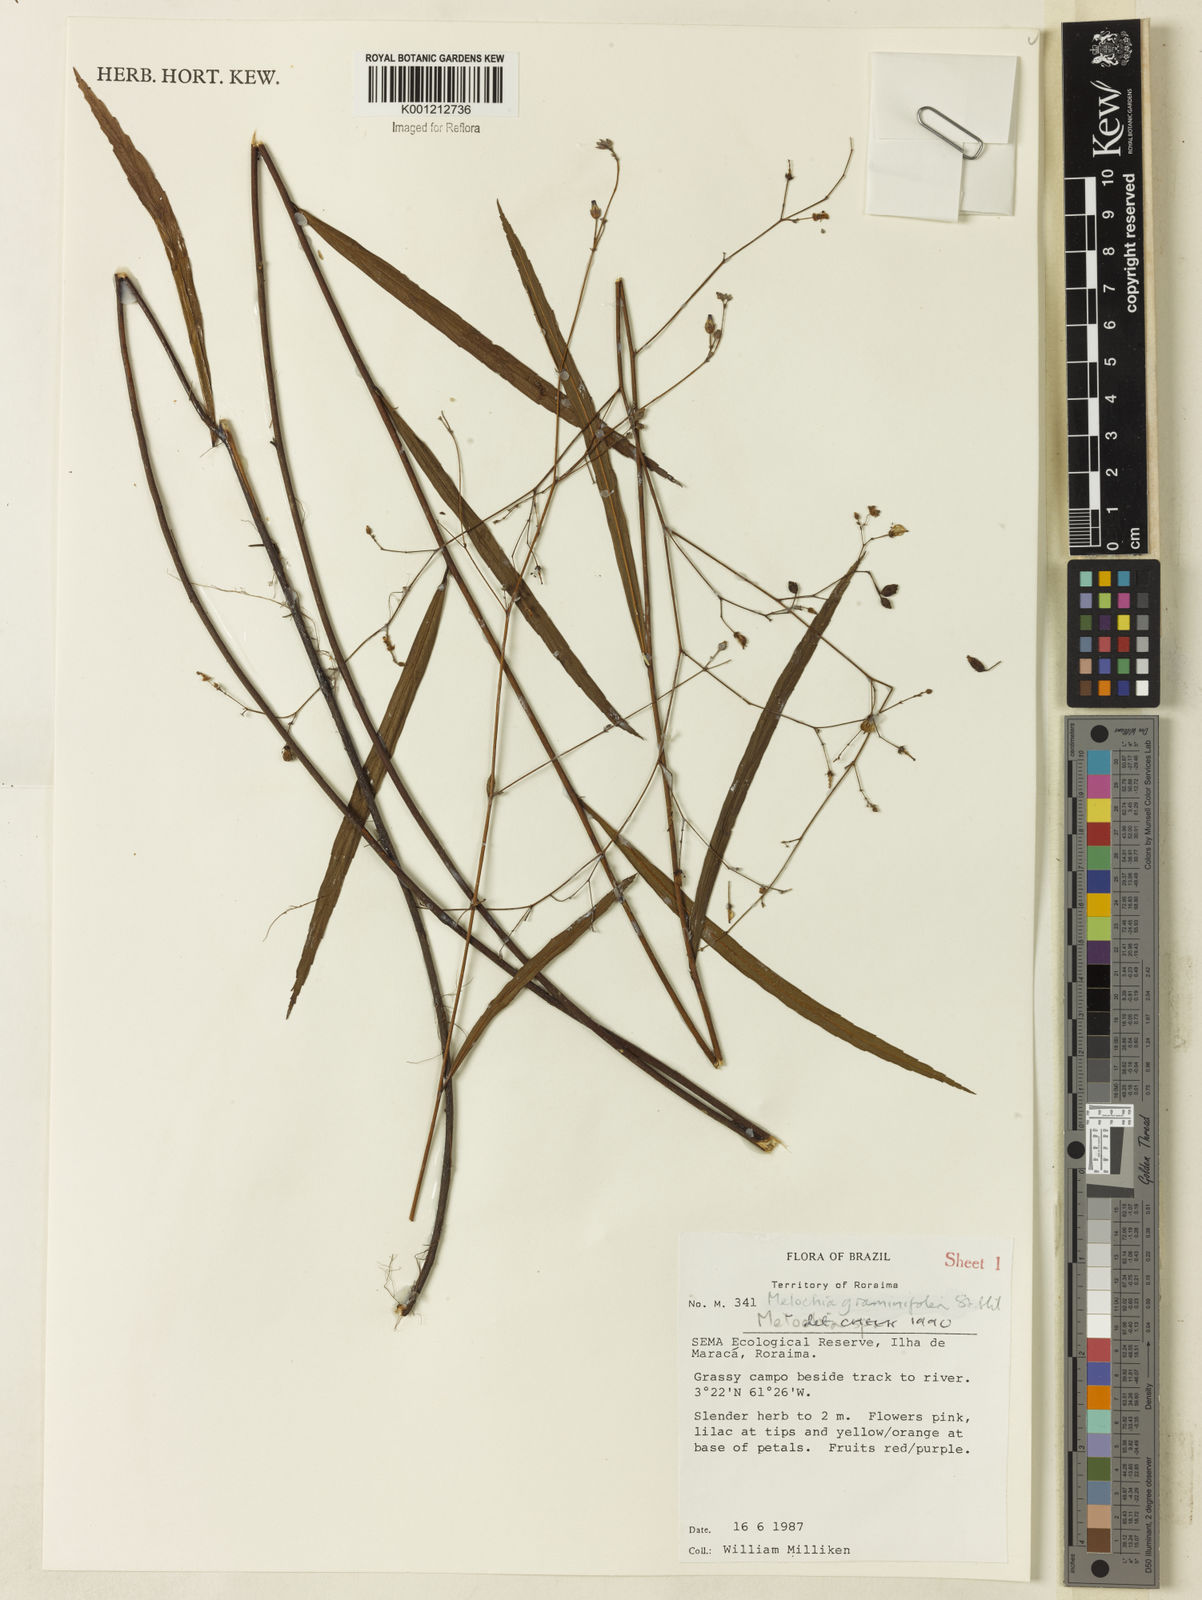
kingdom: Plantae
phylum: Tracheophyta
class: Magnoliopsida
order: Malvales
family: Malvaceae
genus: Melochia
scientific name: Melochia graminifolia
